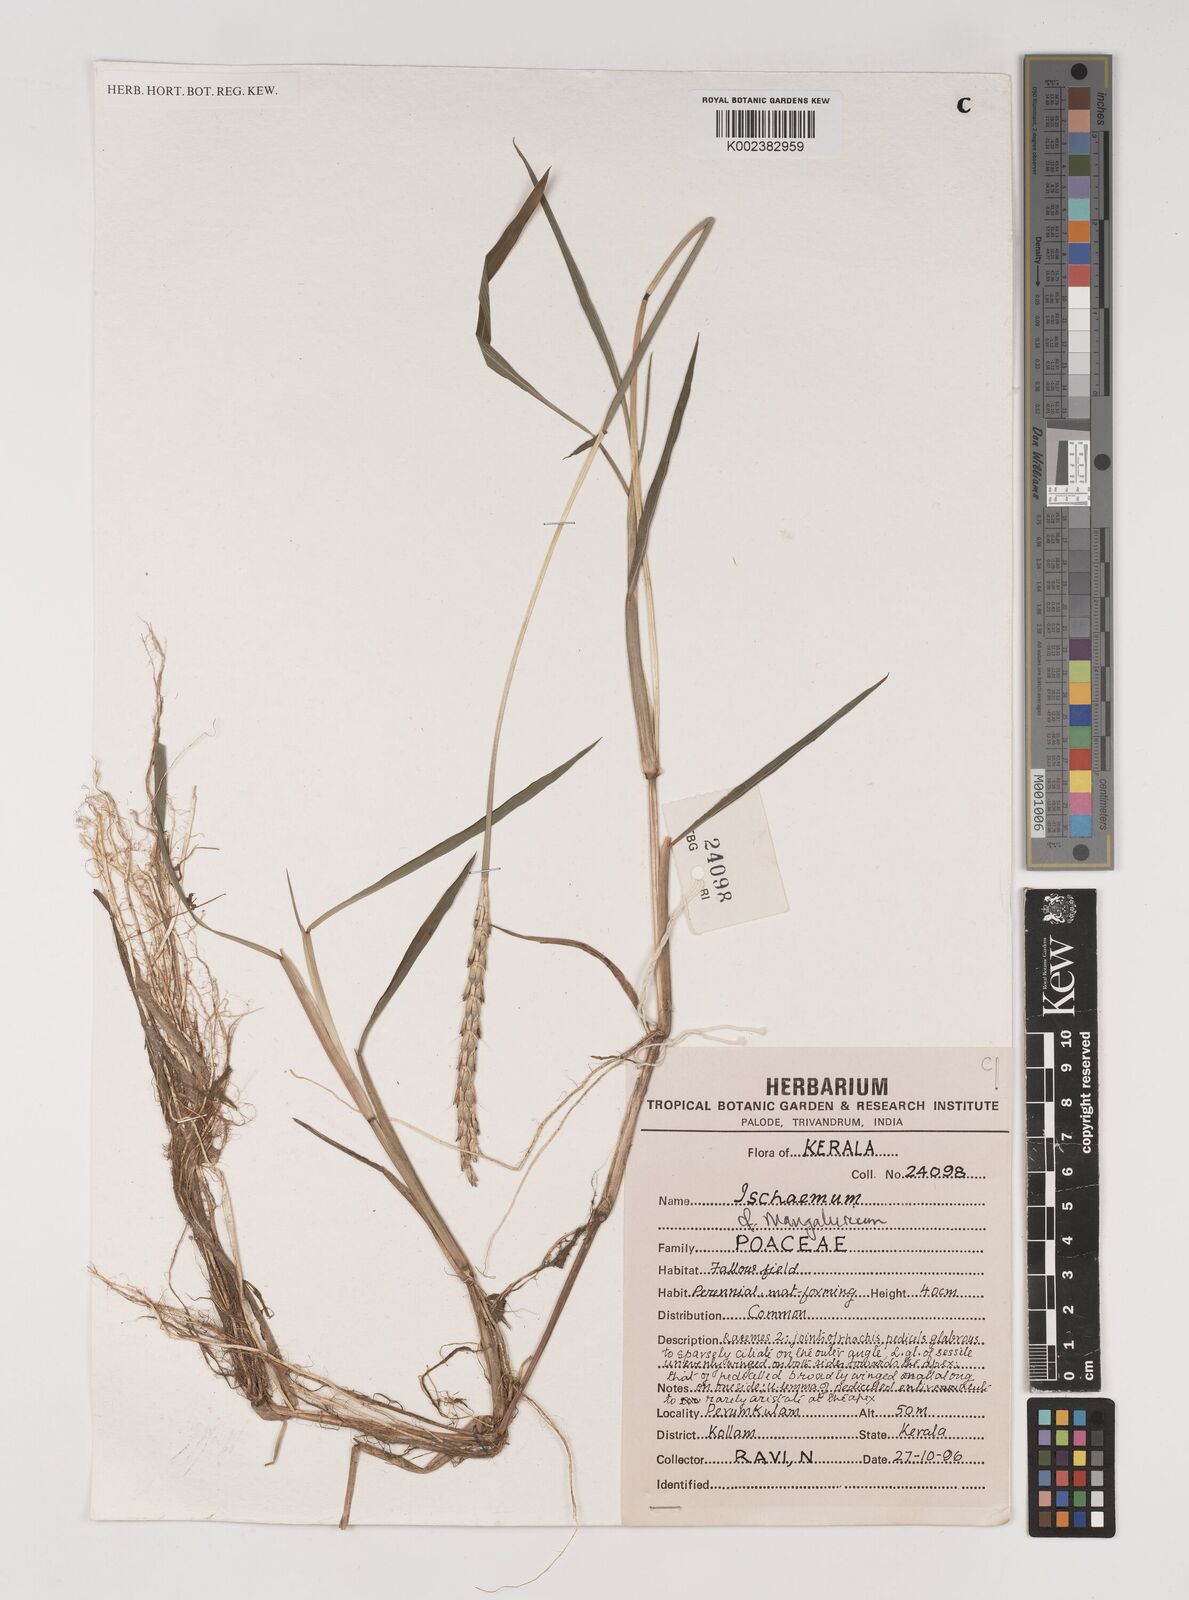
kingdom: Plantae
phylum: Tracheophyta
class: Liliopsida
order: Poales
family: Poaceae
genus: Ischaemum
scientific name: Ischaemum barbatum
